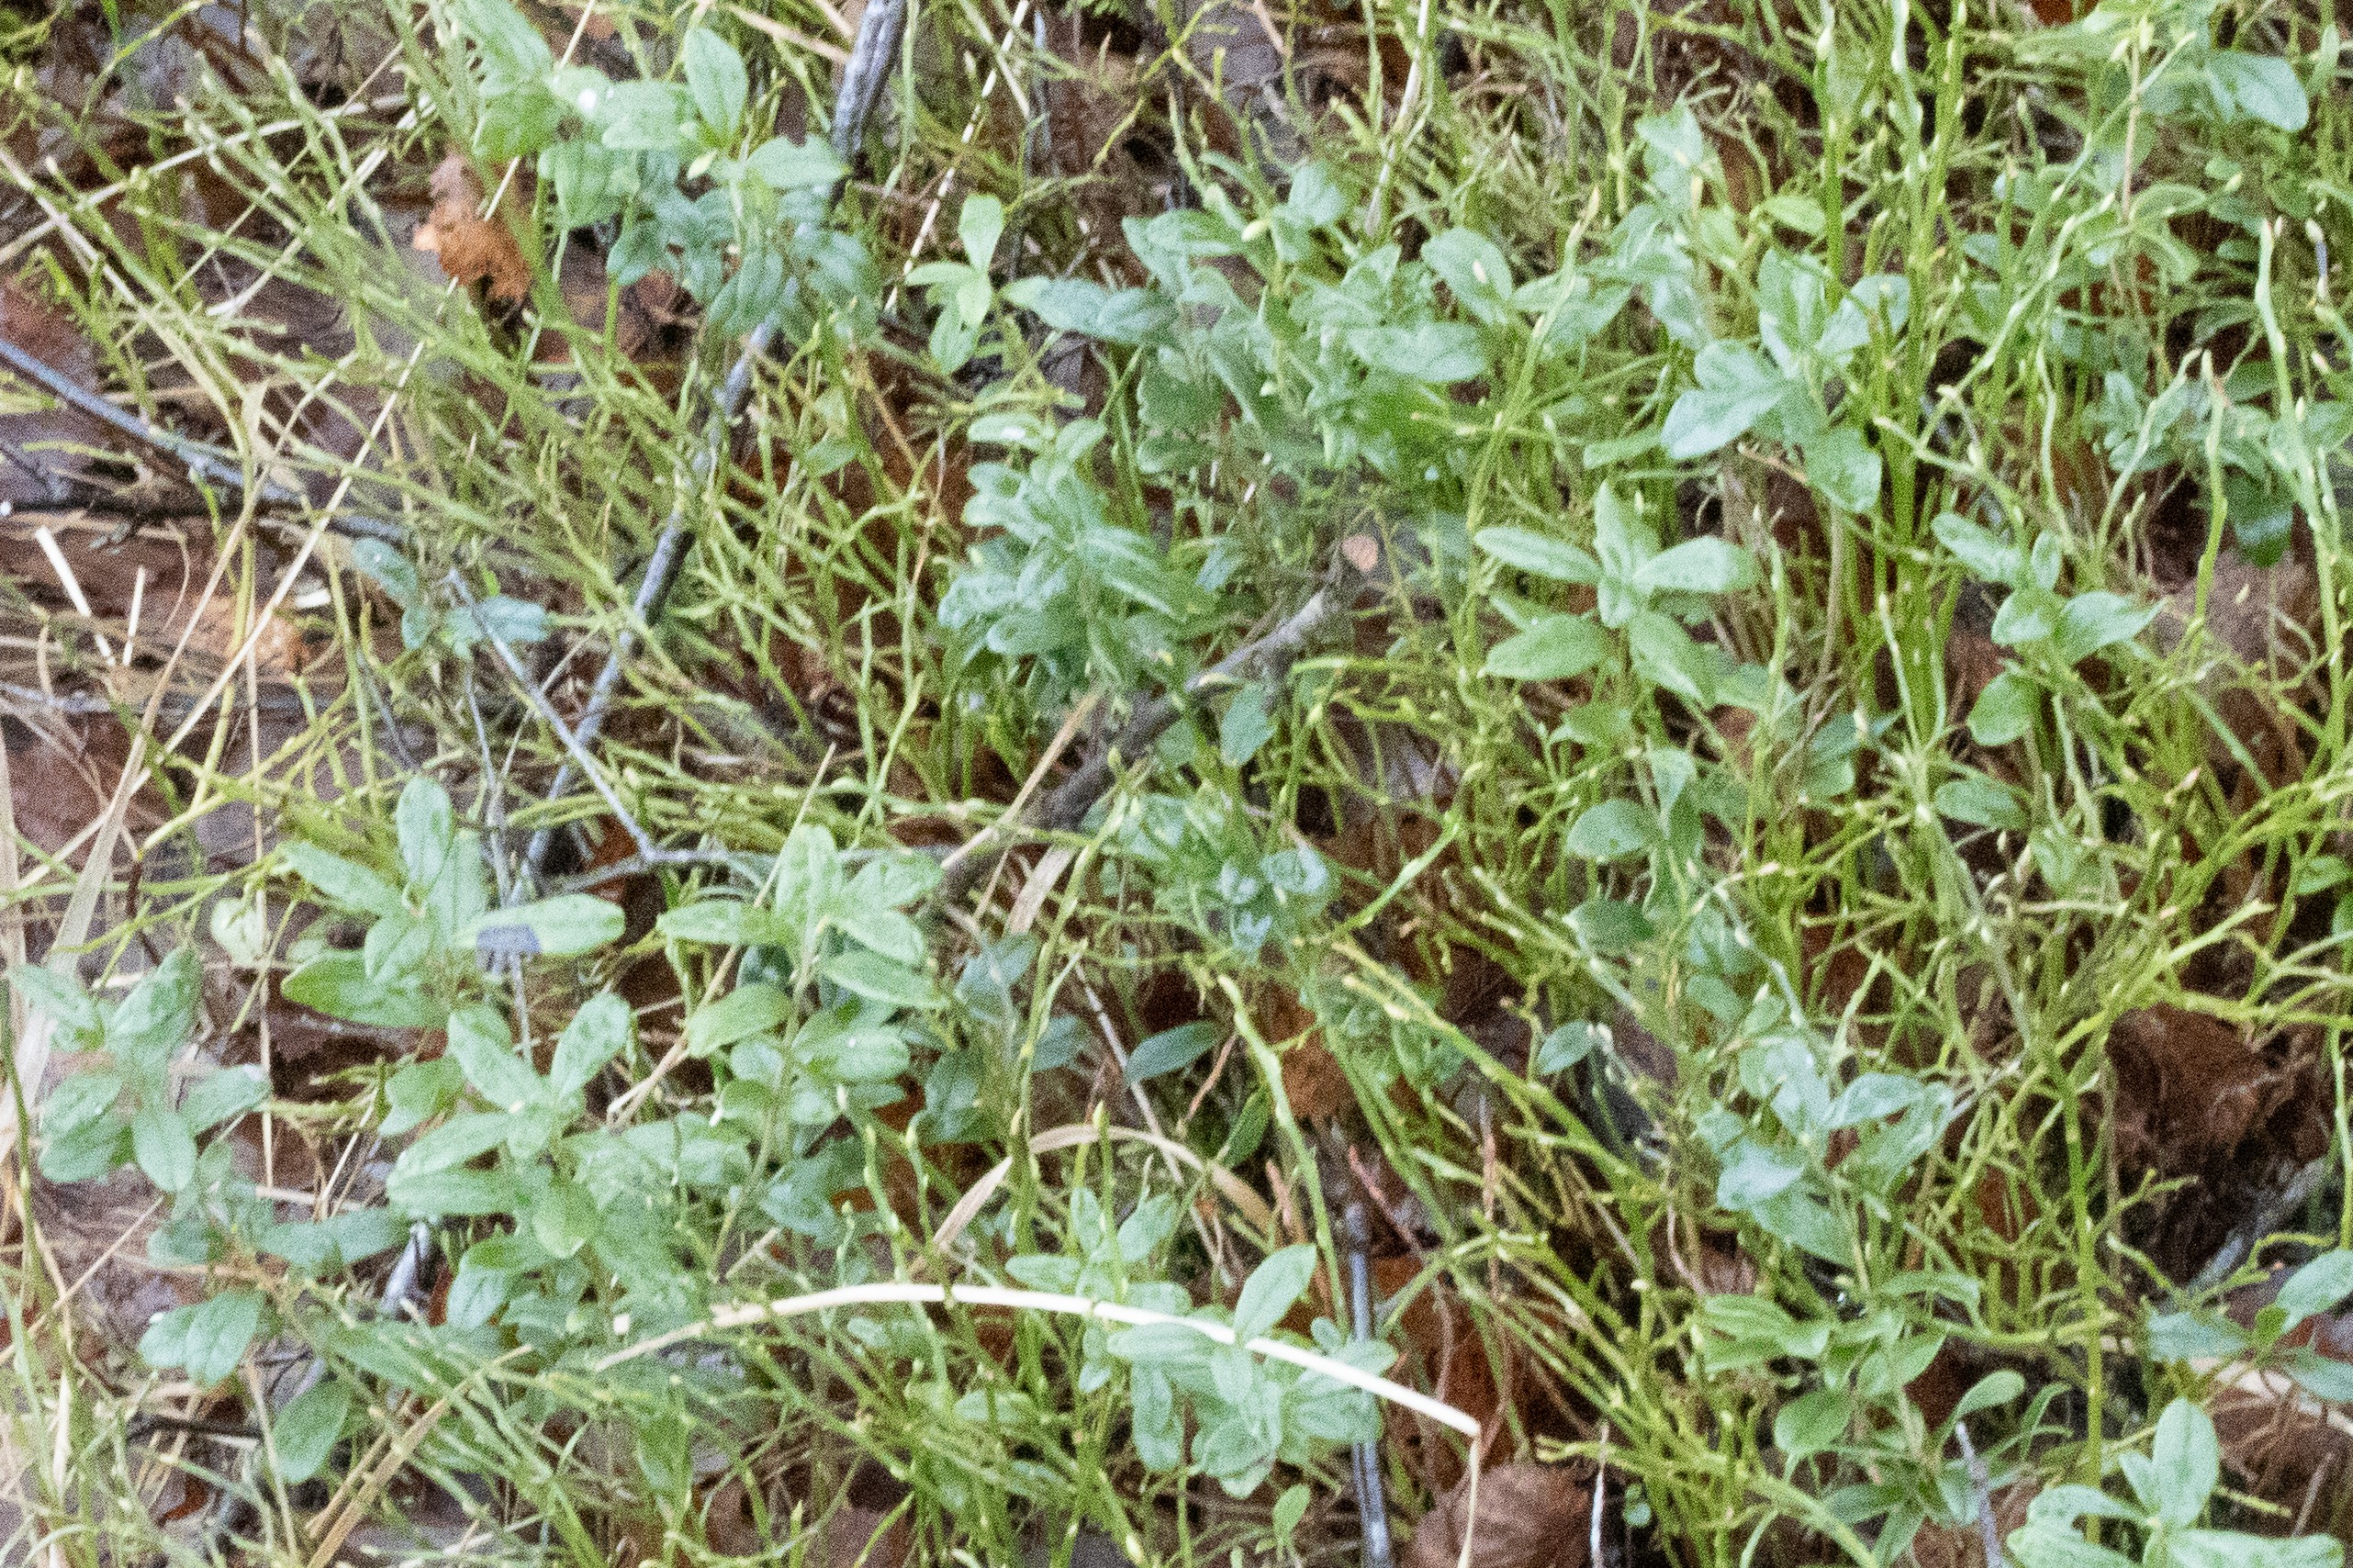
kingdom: Plantae
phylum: Tracheophyta
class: Magnoliopsida
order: Ericales
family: Ericaceae
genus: Vaccinium
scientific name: Vaccinium vitis-idaea
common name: Tyttebær
